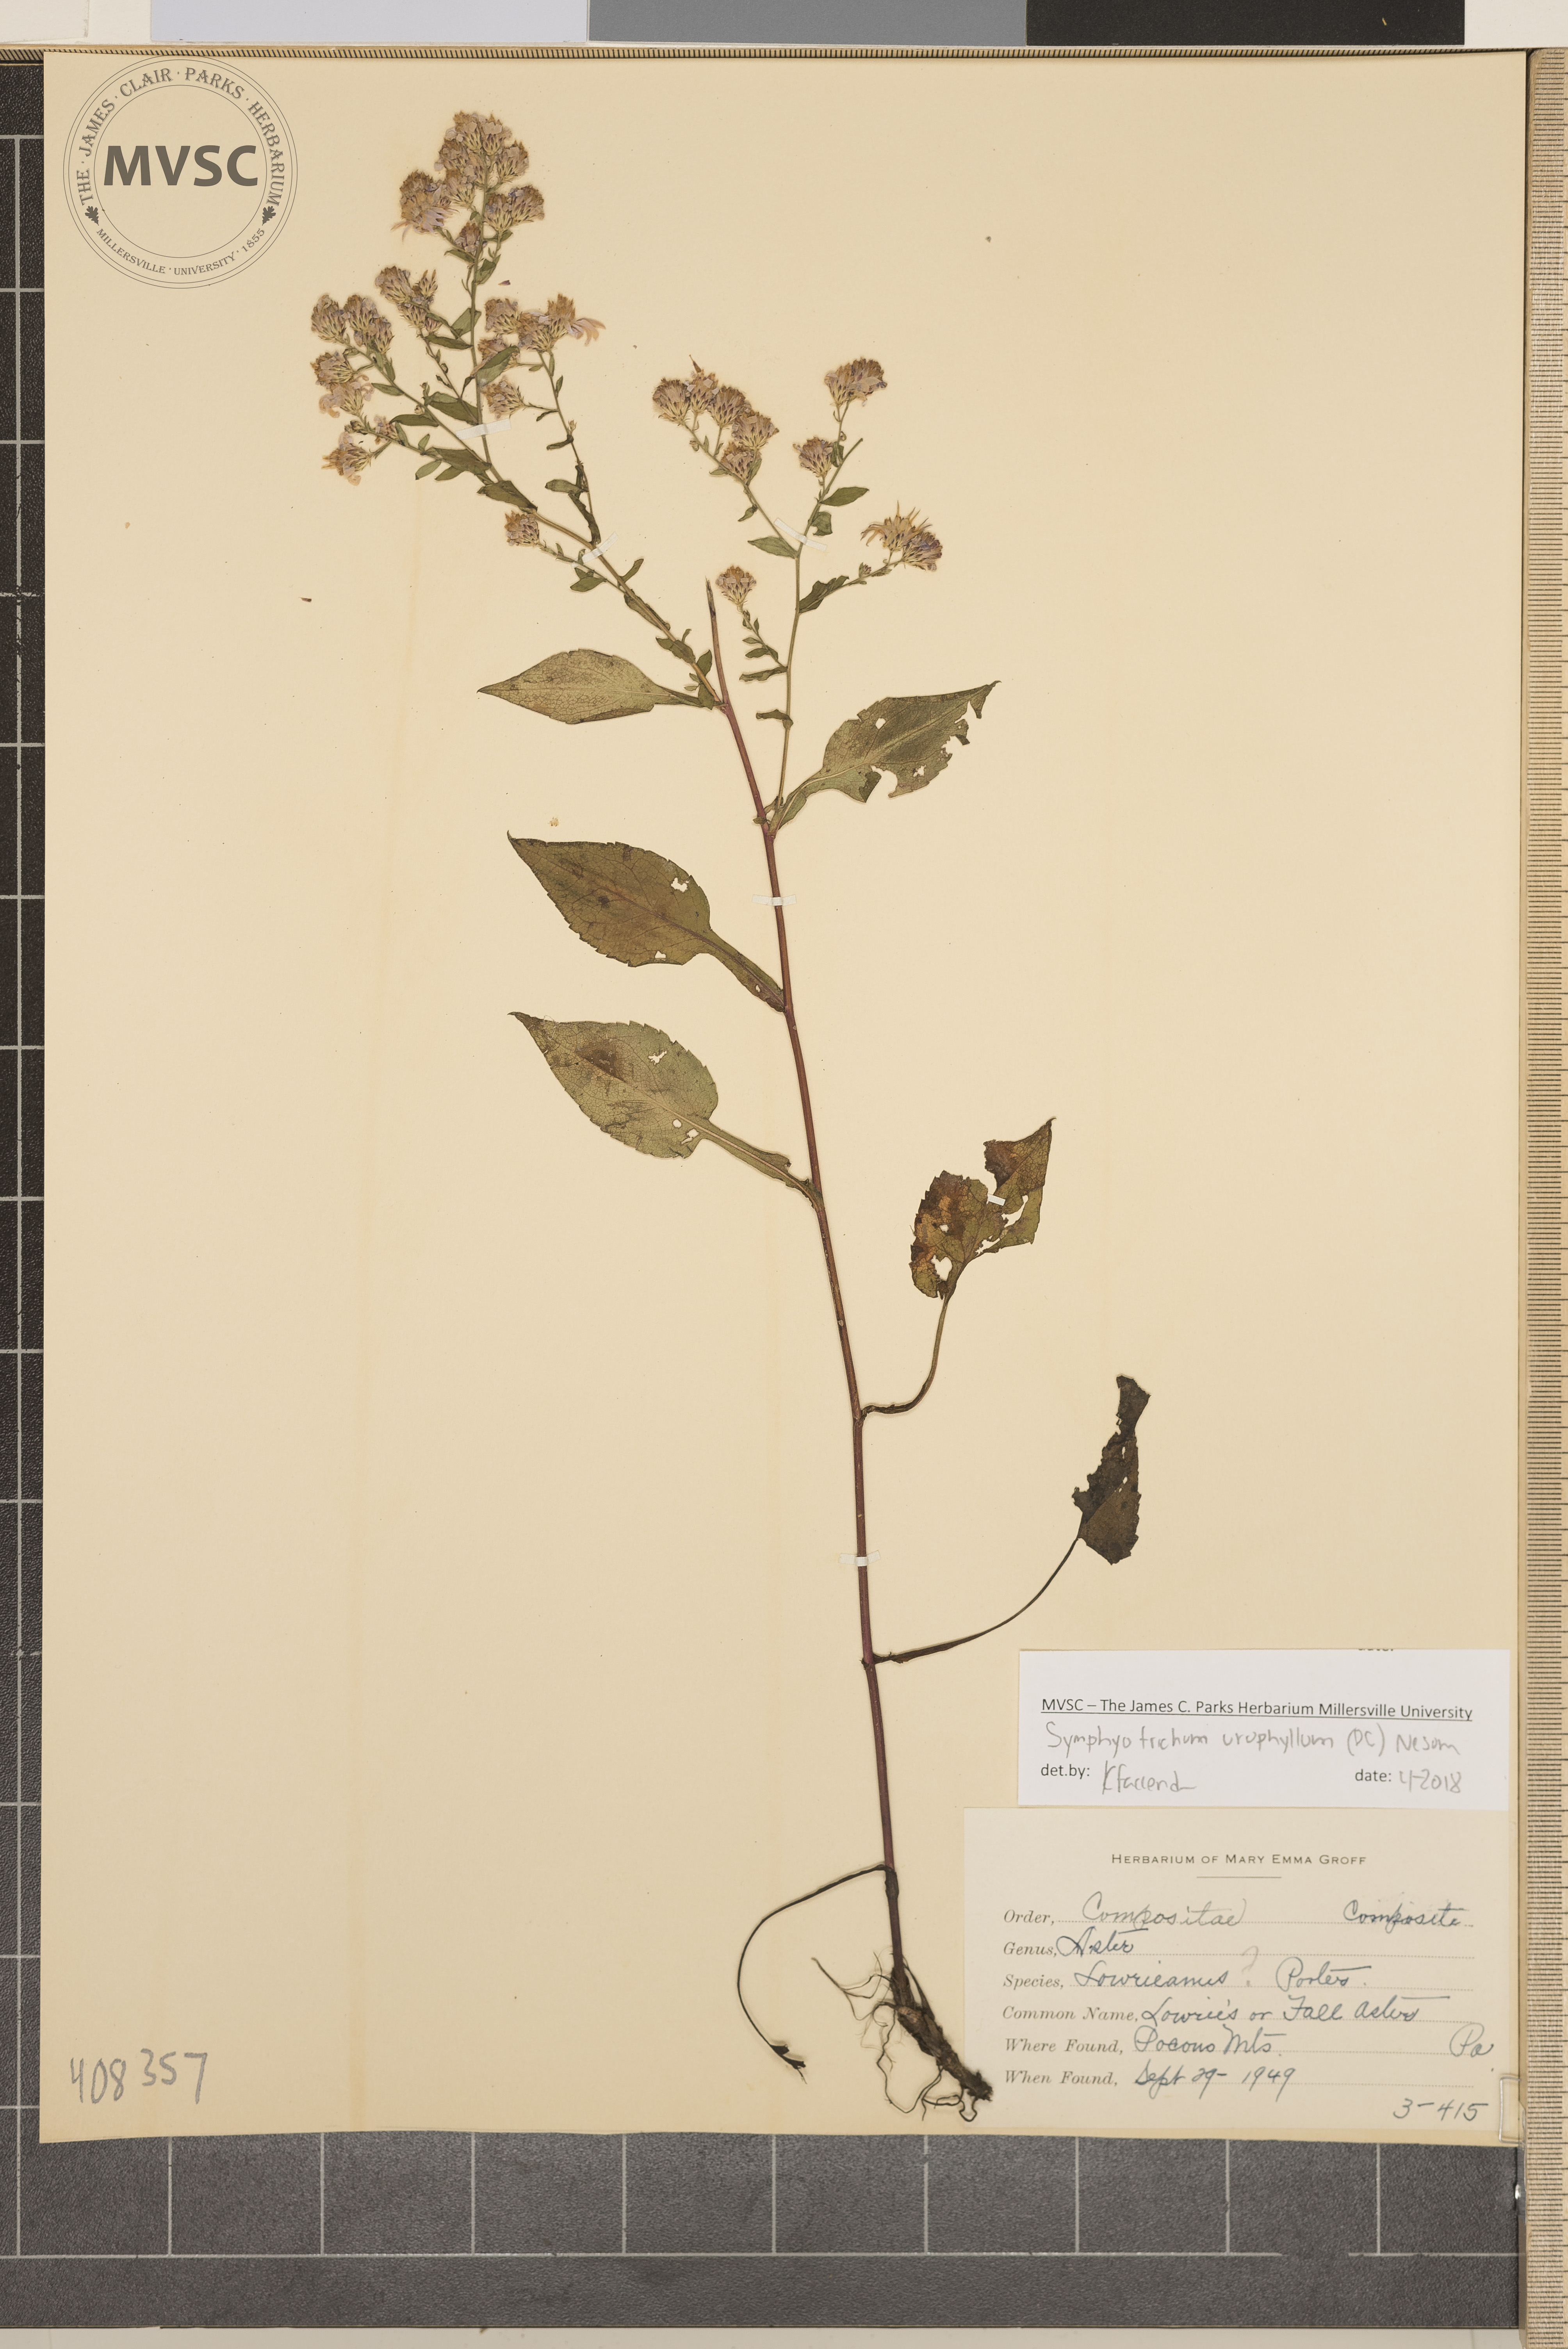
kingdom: Plantae
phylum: Tracheophyta
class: Magnoliopsida
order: Asterales
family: Asteraceae
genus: Symphyotrichum
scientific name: Symphyotrichum urophyllum
